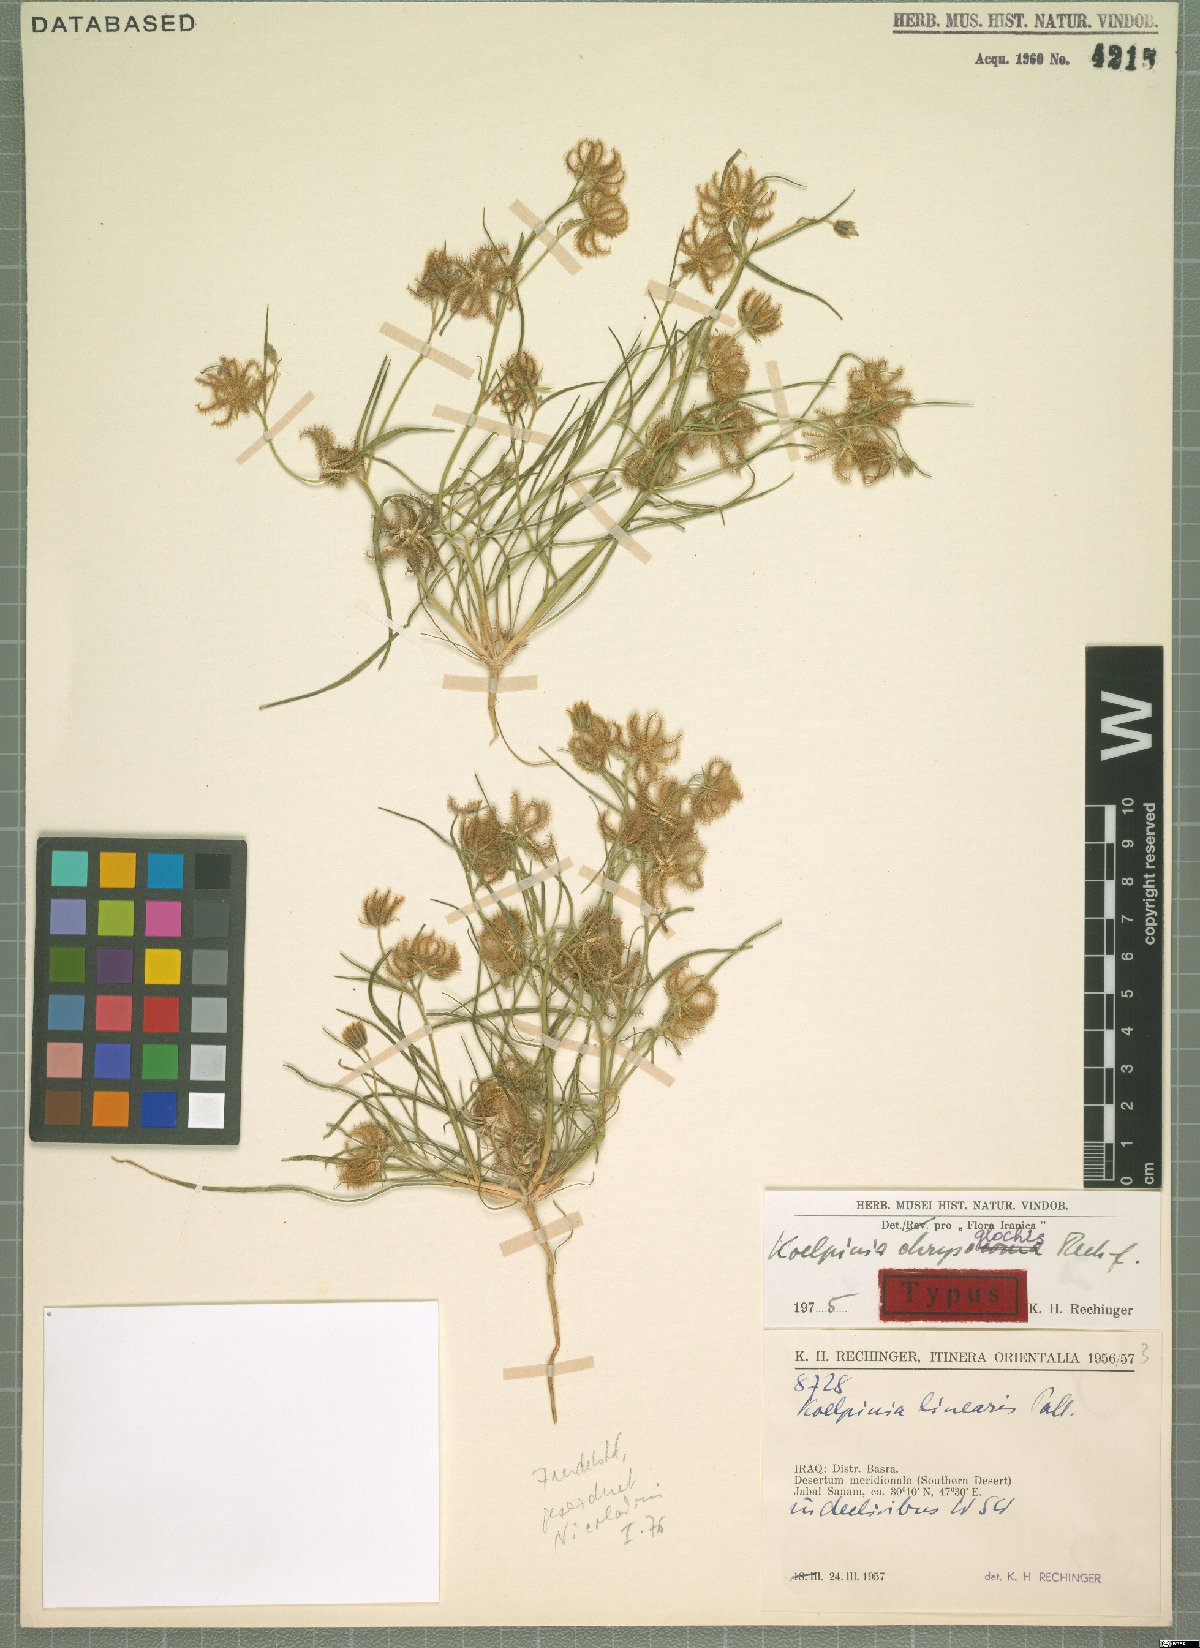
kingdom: Plantae
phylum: Tracheophyta
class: Magnoliopsida
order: Asterales
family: Asteraceae
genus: Koelpinia
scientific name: Koelpinia chrysoglochis
